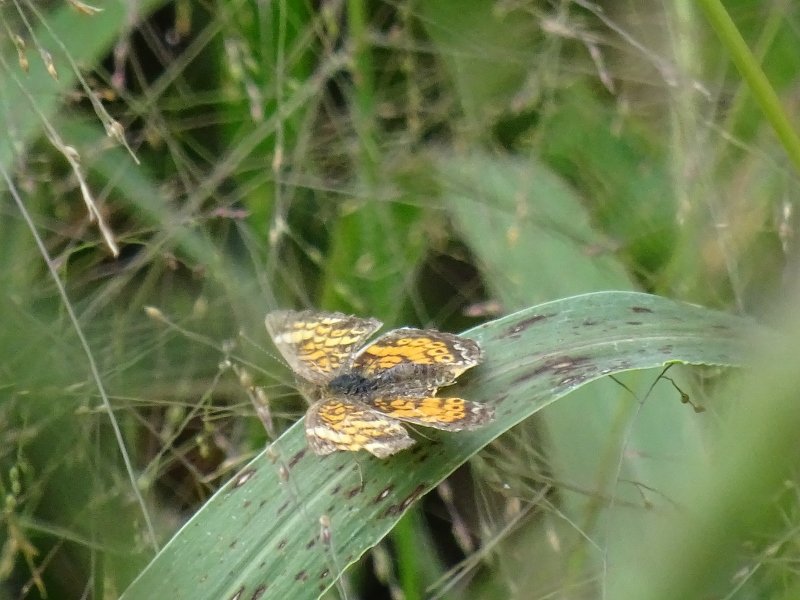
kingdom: Animalia
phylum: Arthropoda
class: Insecta
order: Lepidoptera
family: Nymphalidae
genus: Phyciodes
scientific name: Phyciodes
